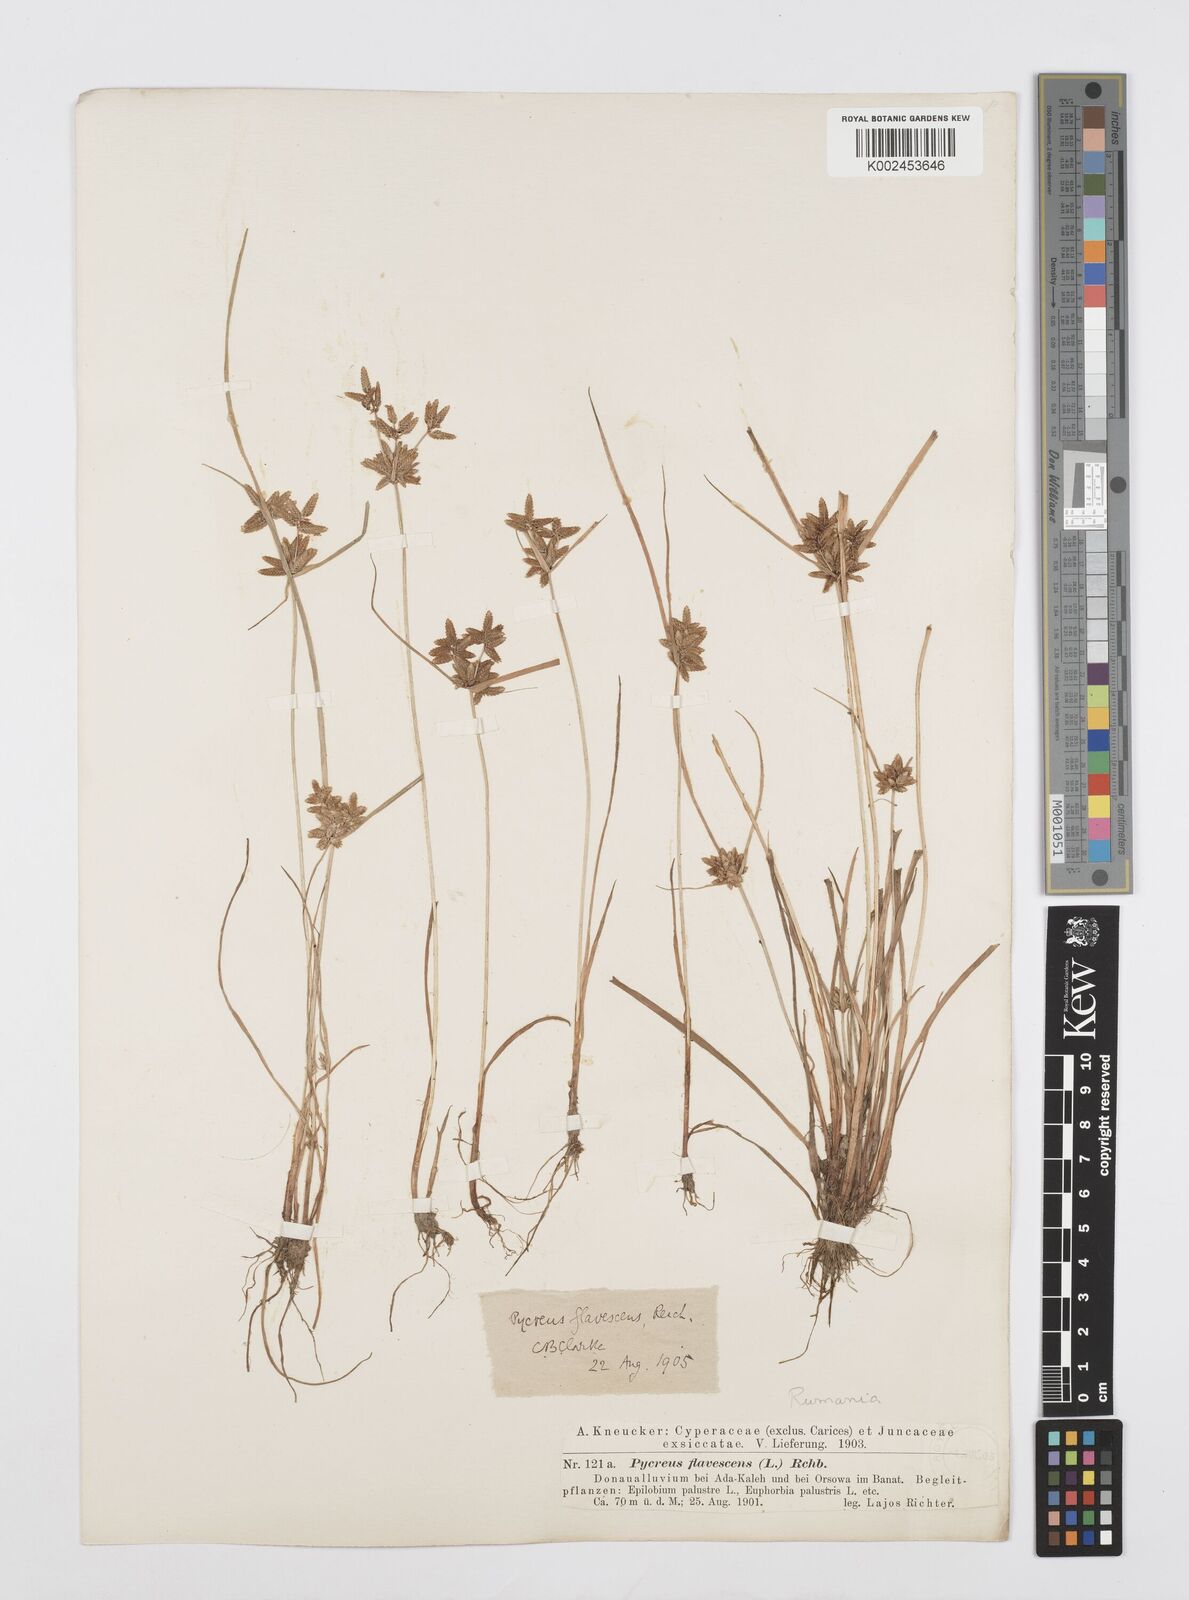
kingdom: Plantae
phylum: Tracheophyta
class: Liliopsida
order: Poales
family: Cyperaceae
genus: Cyperus
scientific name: Cyperus flavescens
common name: Yellow galingale
